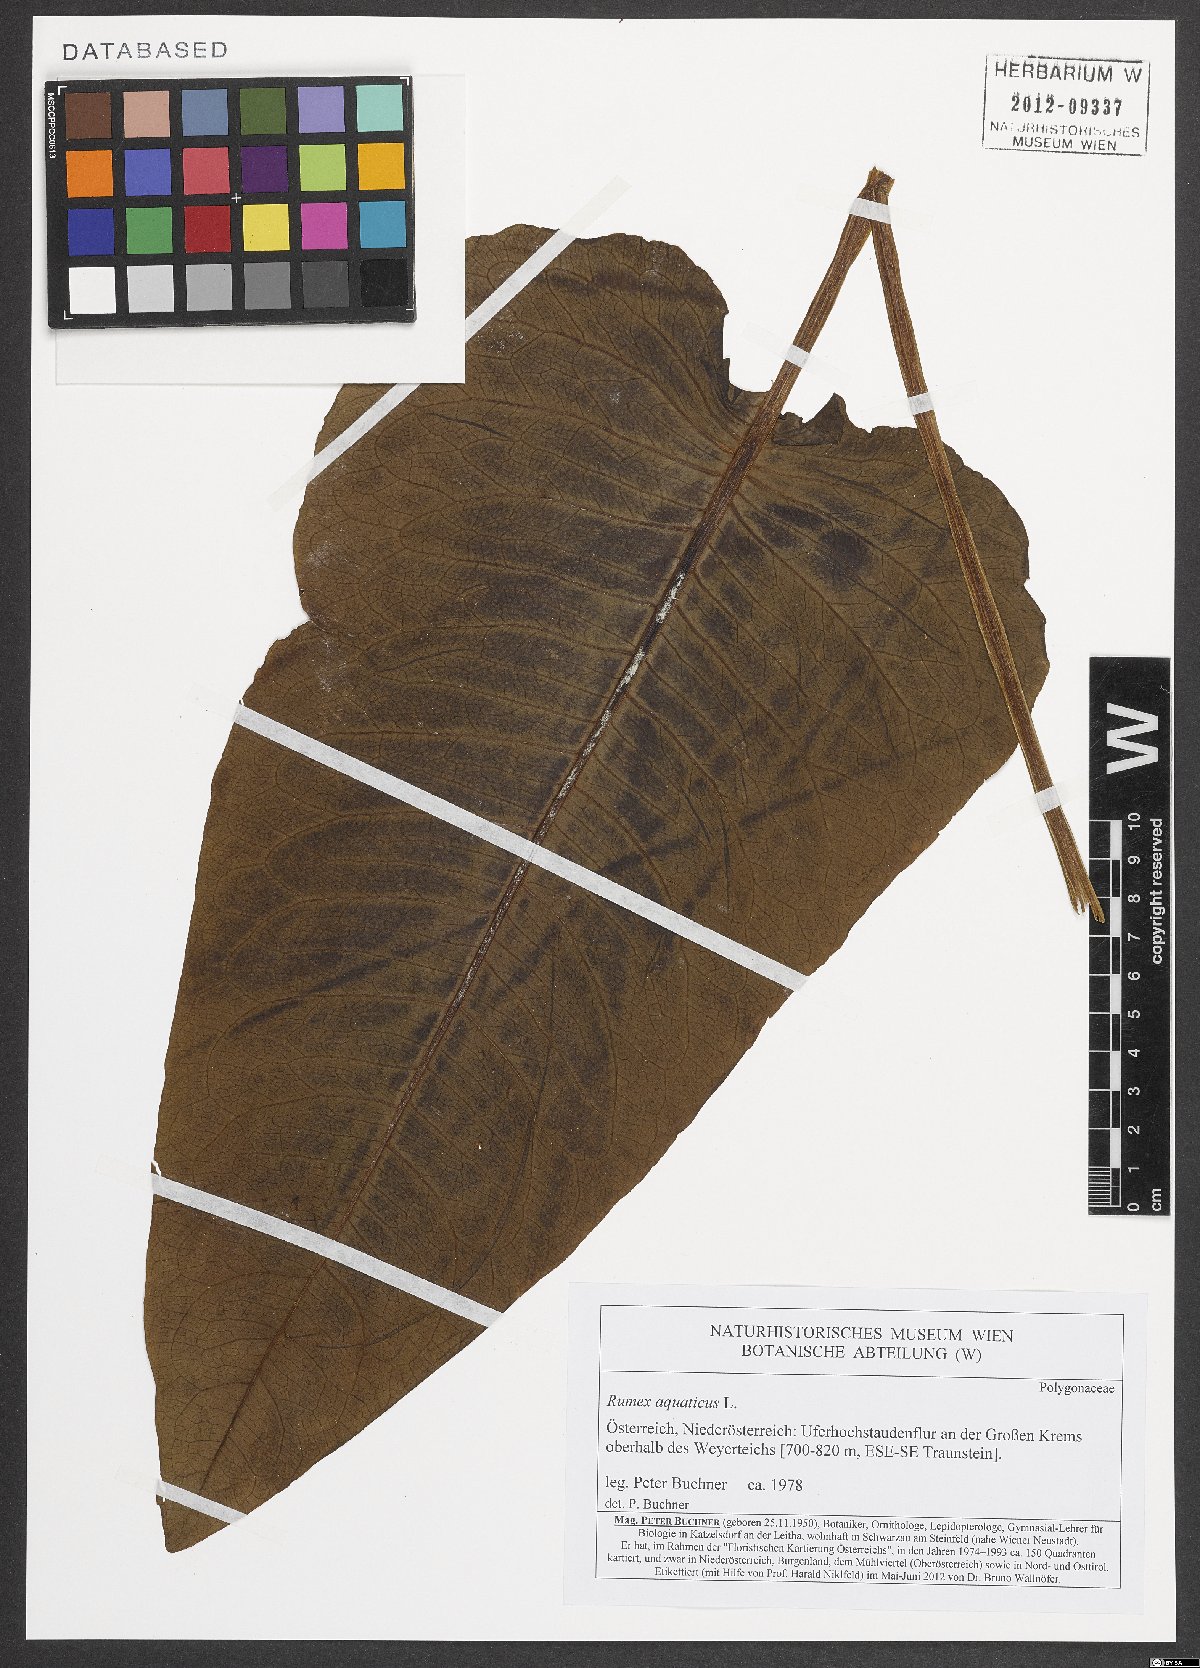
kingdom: Plantae
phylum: Tracheophyta
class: Magnoliopsida
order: Caryophyllales
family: Polygonaceae
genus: Rumex
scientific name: Rumex aquaticus
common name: Scottish dock
